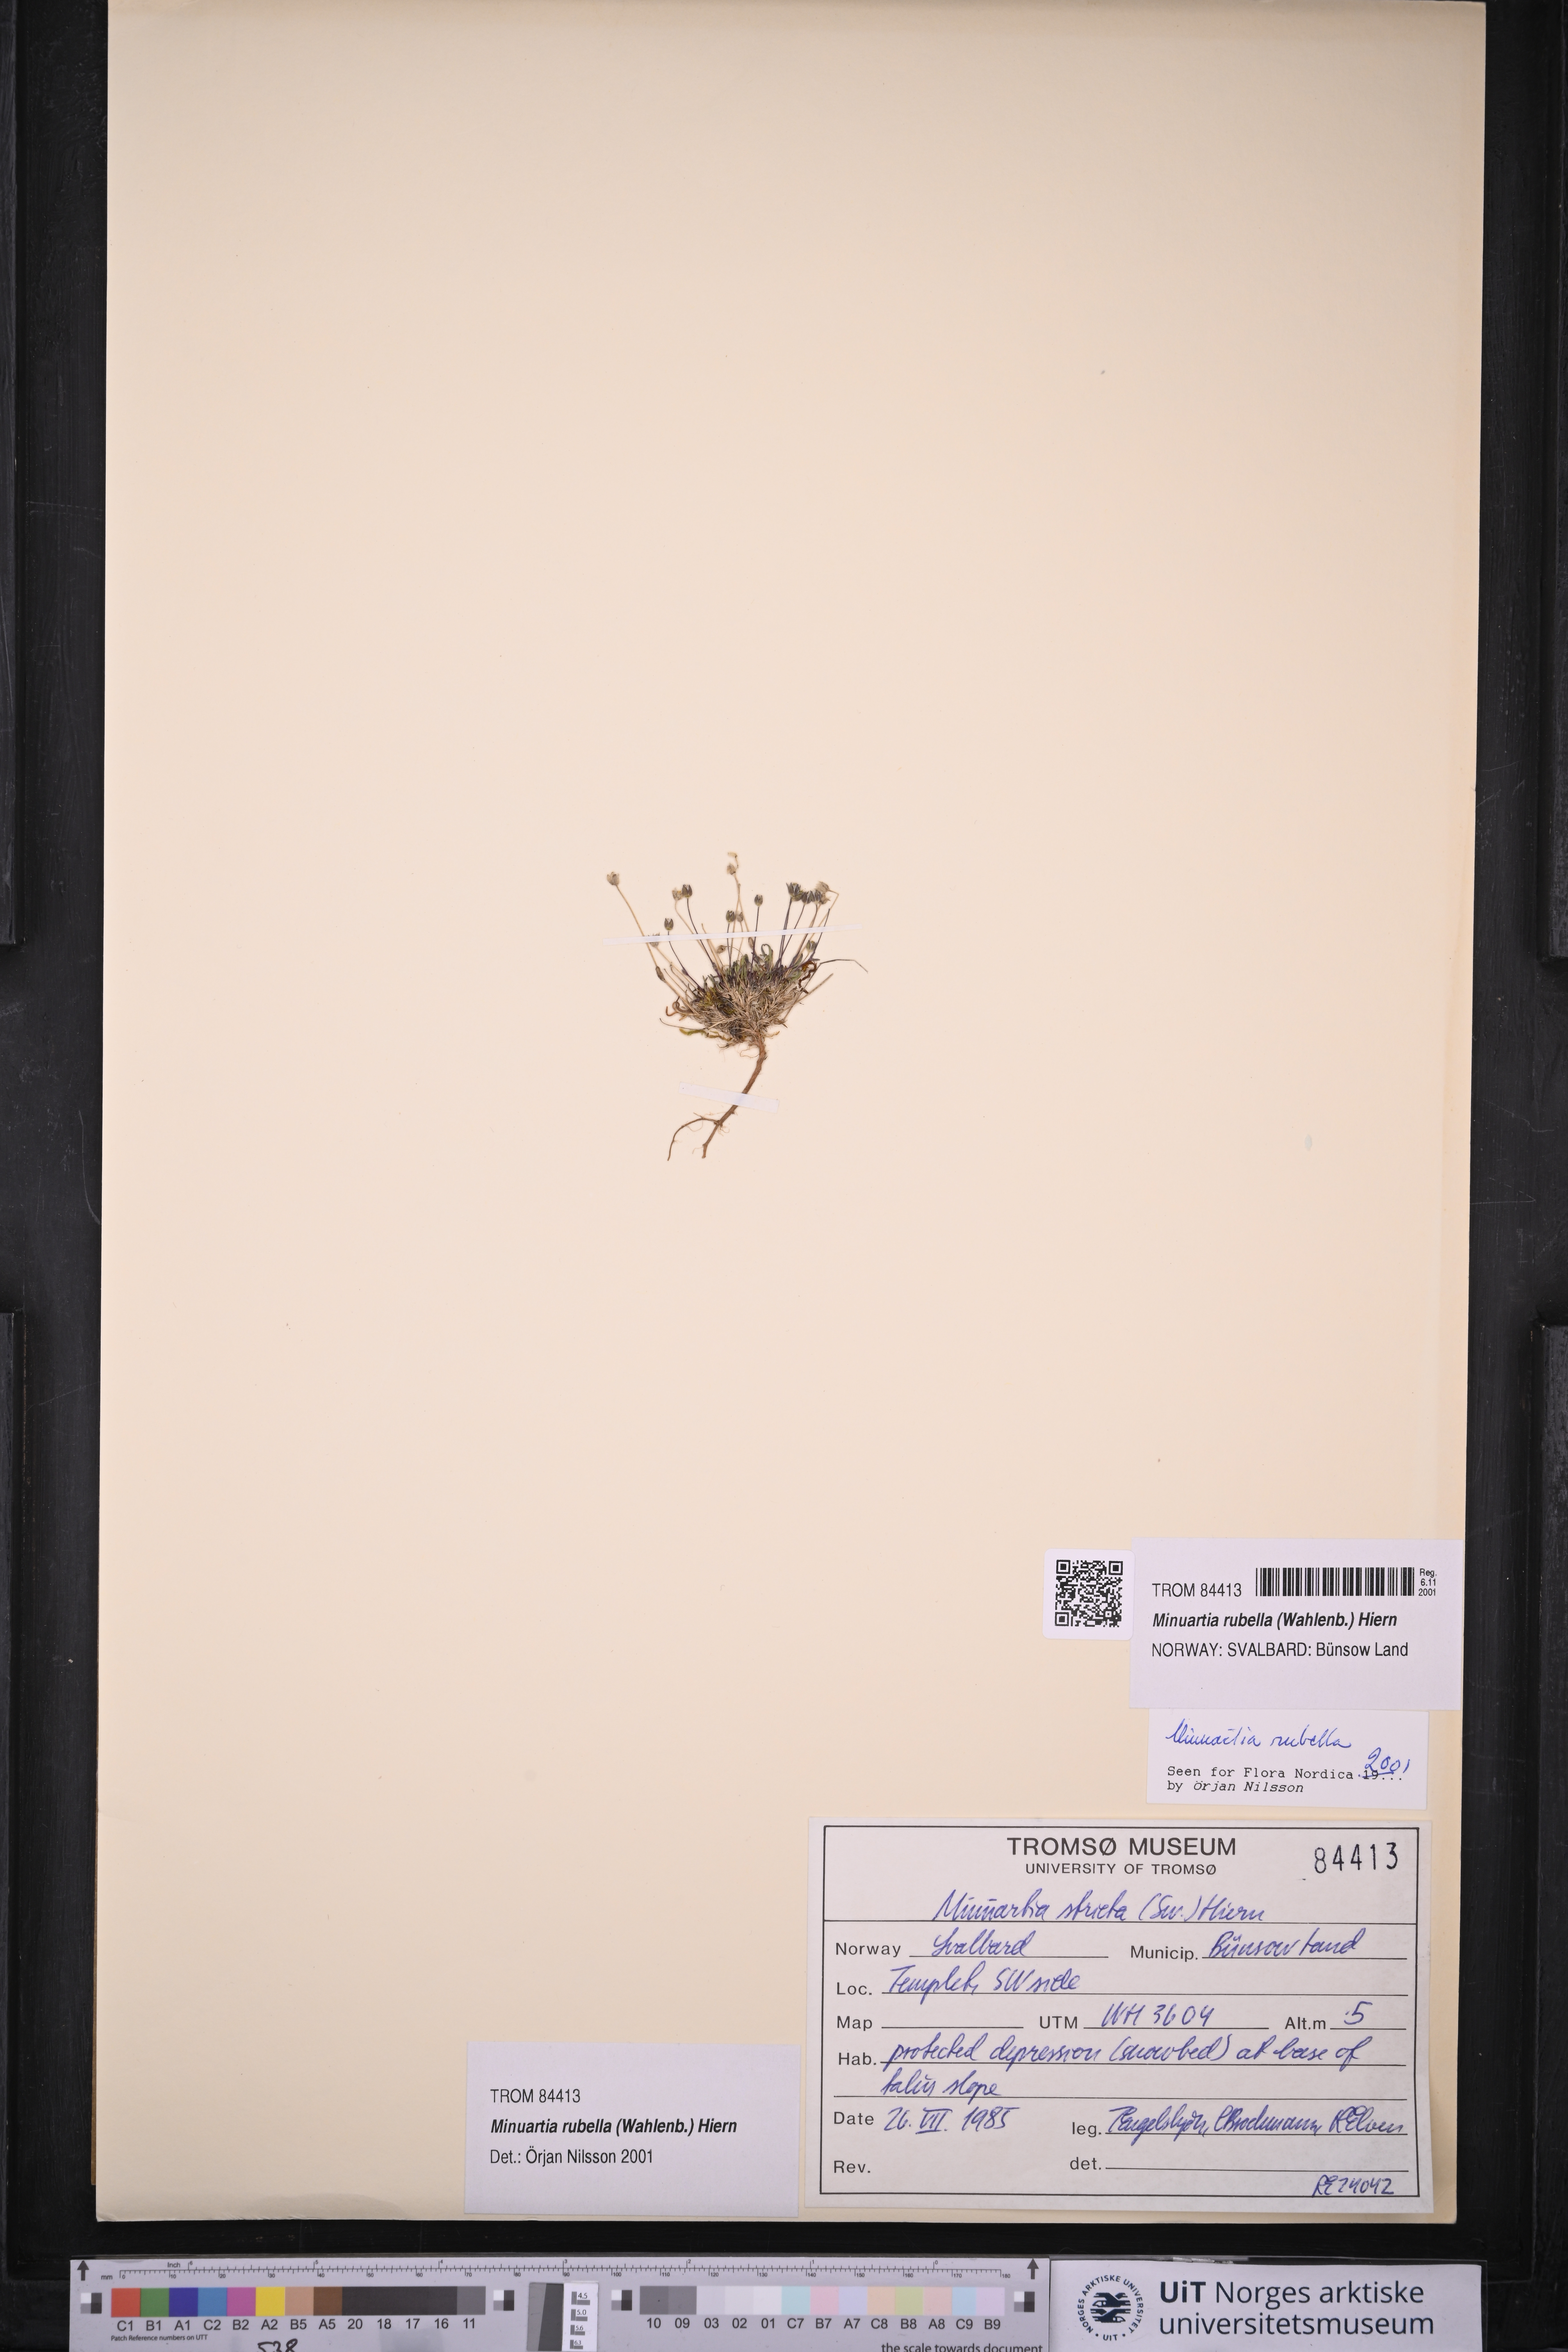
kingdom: Plantae
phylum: Tracheophyta
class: Magnoliopsida
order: Caryophyllales
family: Caryophyllaceae
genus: Sabulina
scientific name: Sabulina rubella
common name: Beautiful sandwort
